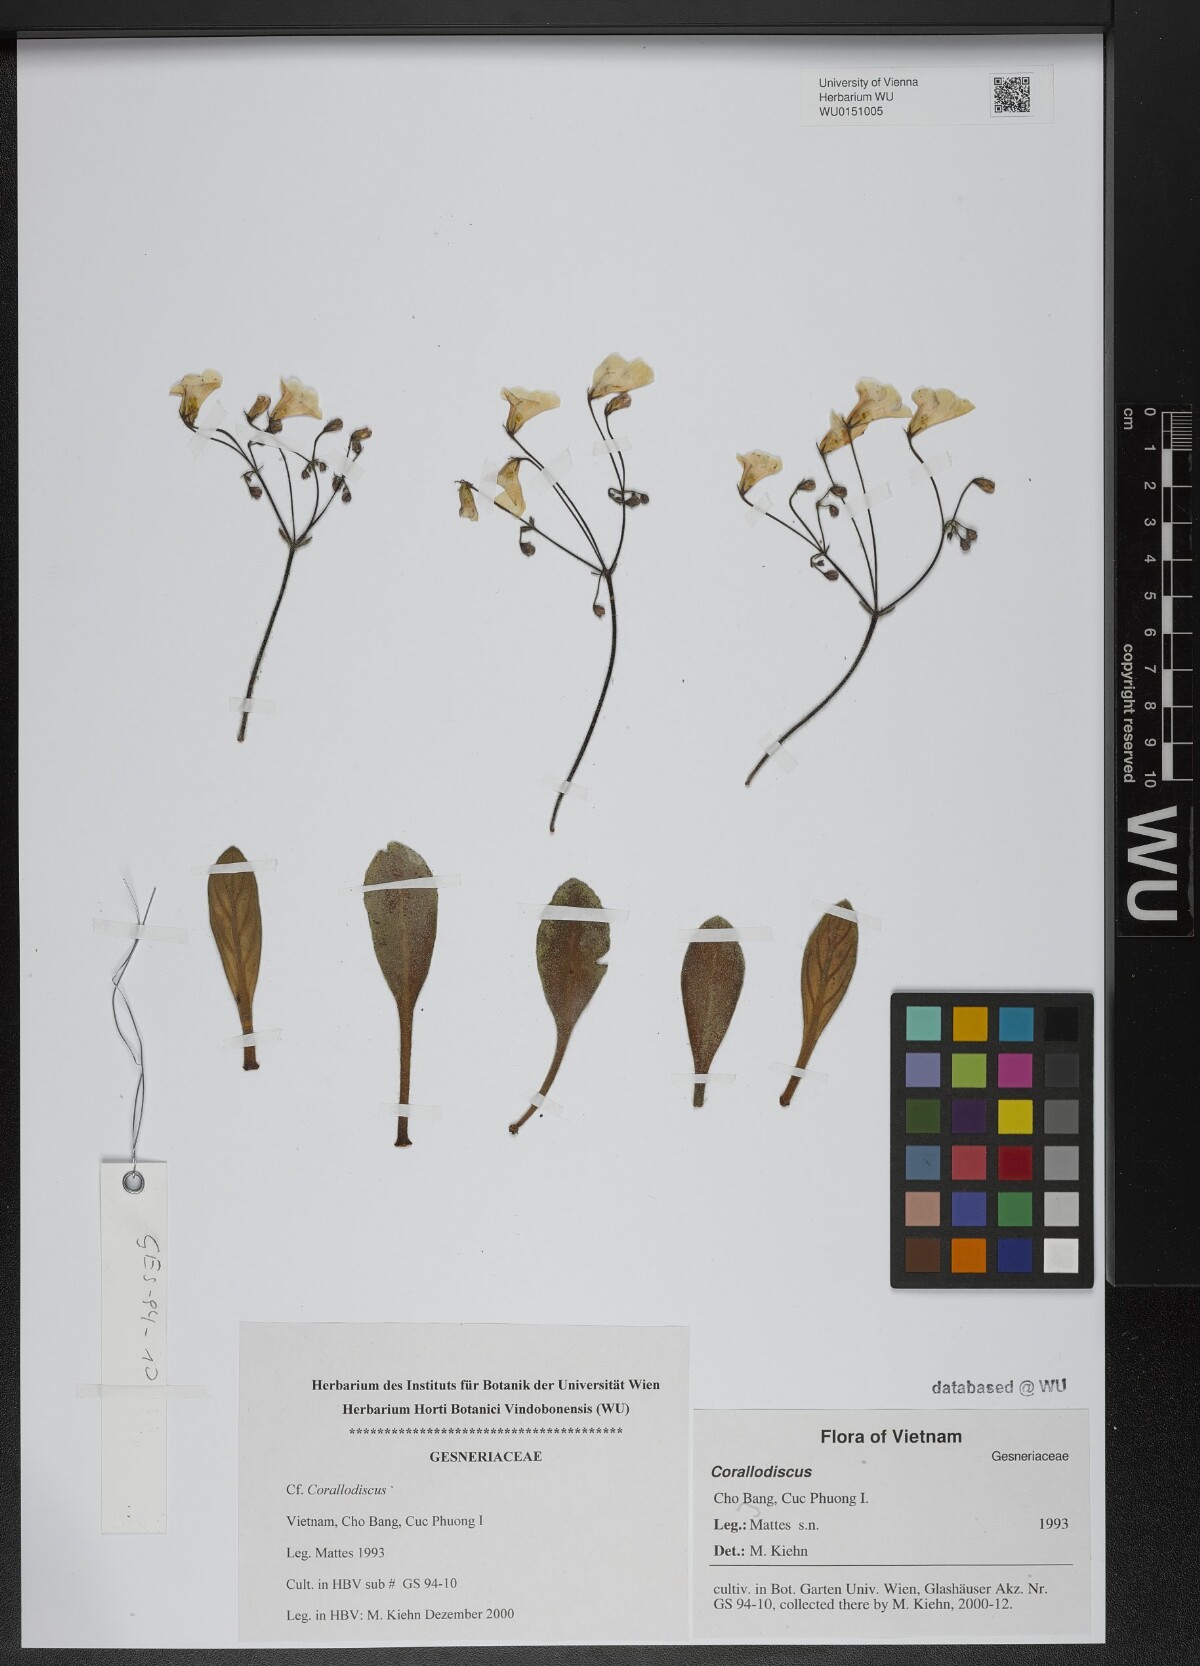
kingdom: Plantae
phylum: Tracheophyta
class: Magnoliopsida
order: Lamiales
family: Gesneriaceae
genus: Corallodiscus
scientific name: Corallodiscus
